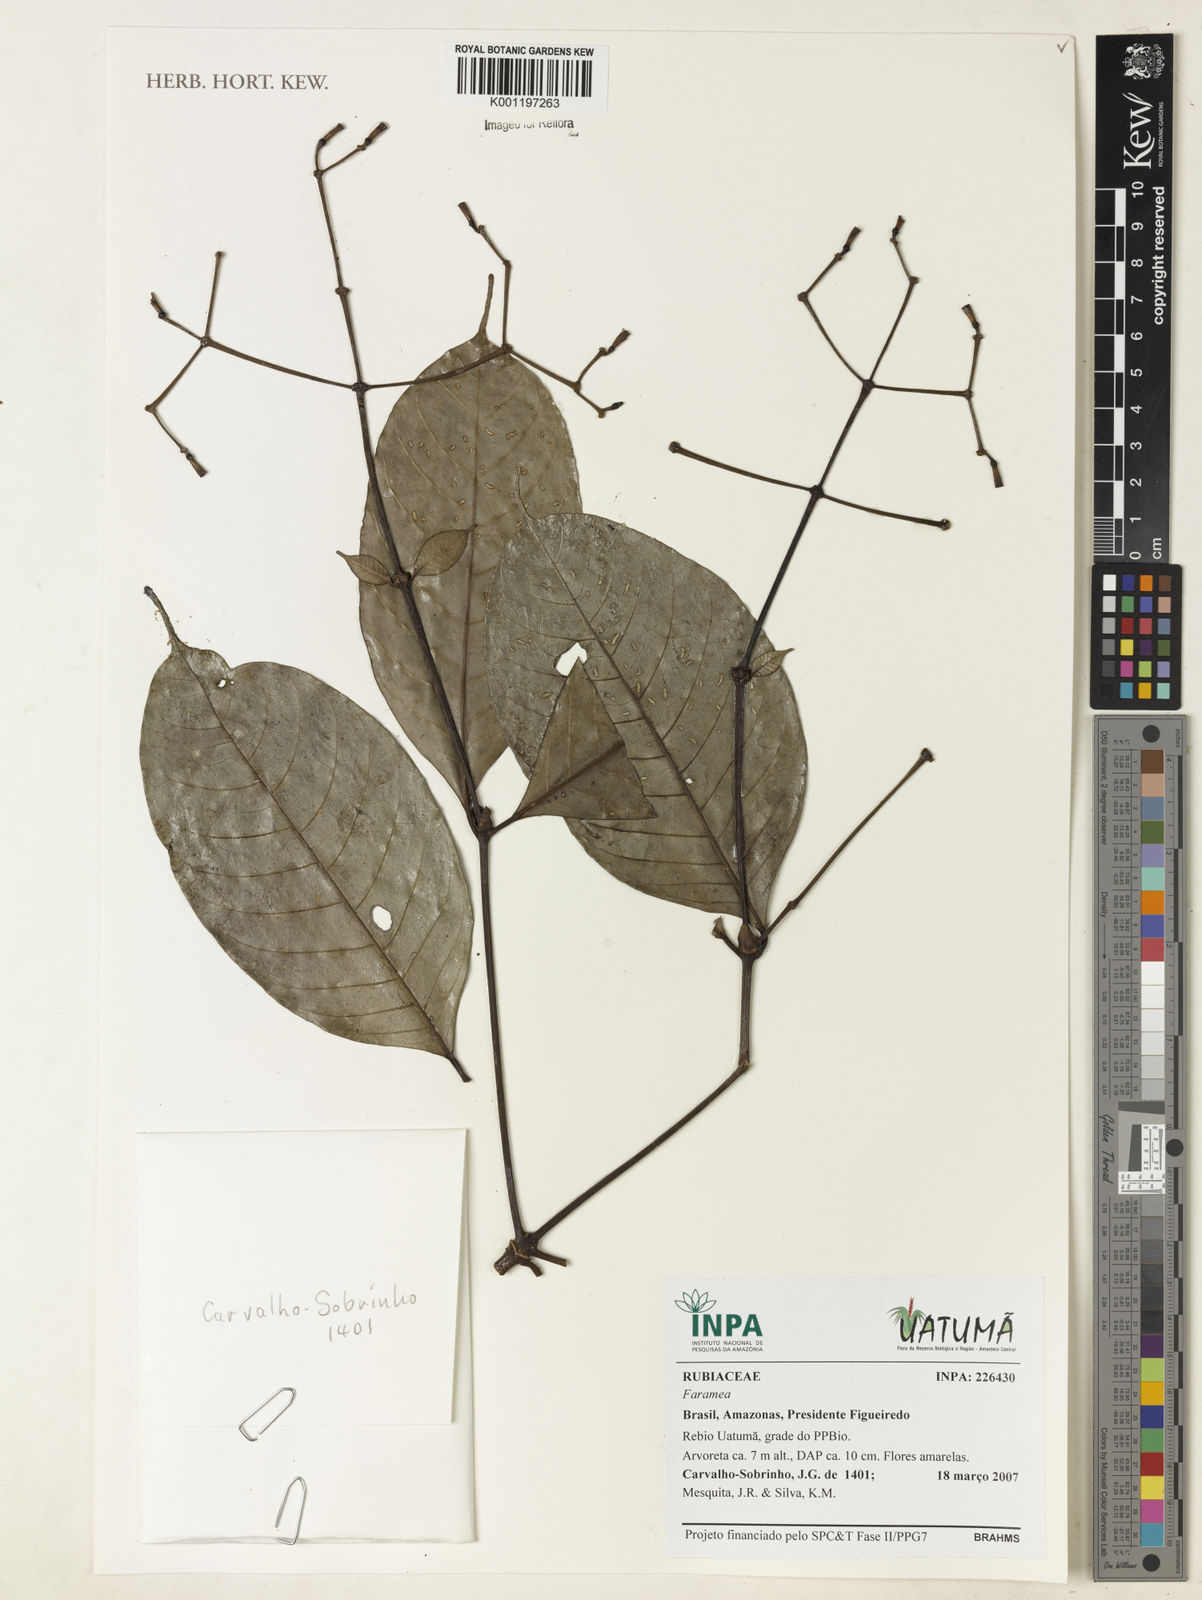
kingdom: Plantae
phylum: Tracheophyta
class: Magnoliopsida
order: Gentianales
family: Rubiaceae
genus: Faramea
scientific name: Faramea
